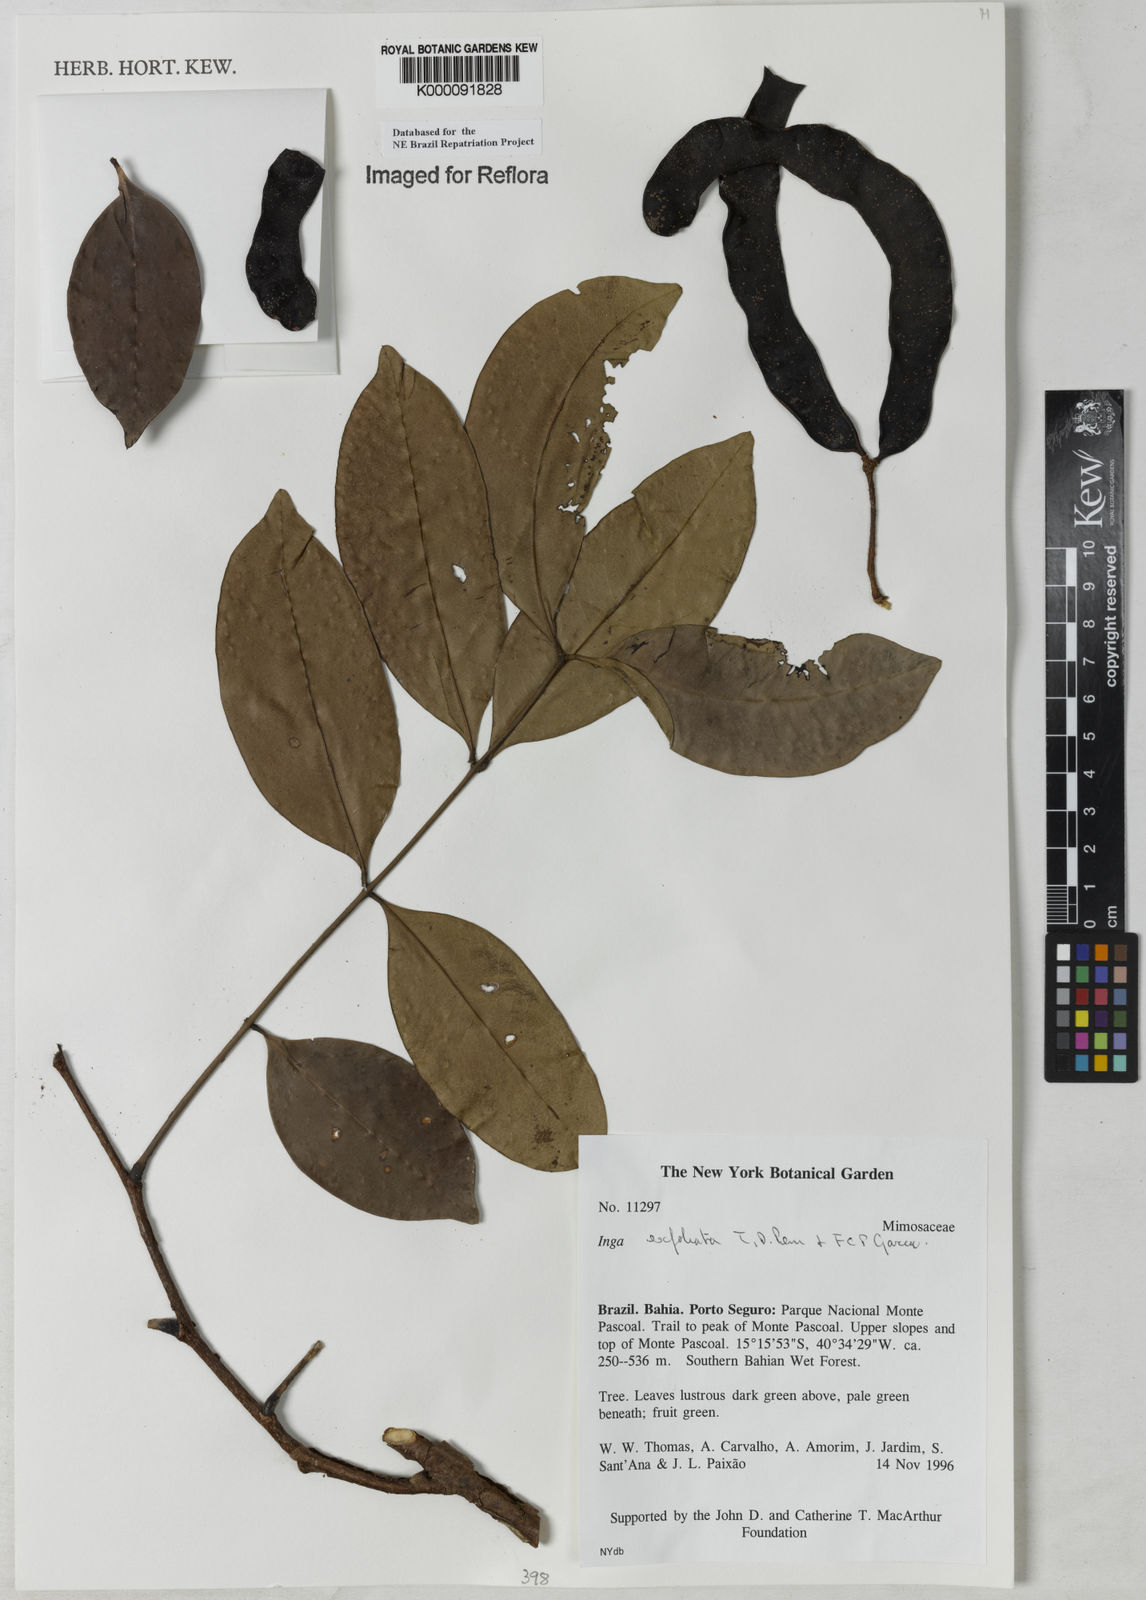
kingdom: Plantae
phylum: Tracheophyta
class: Magnoliopsida
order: Fabales
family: Fabaceae
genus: Inga
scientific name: Inga
